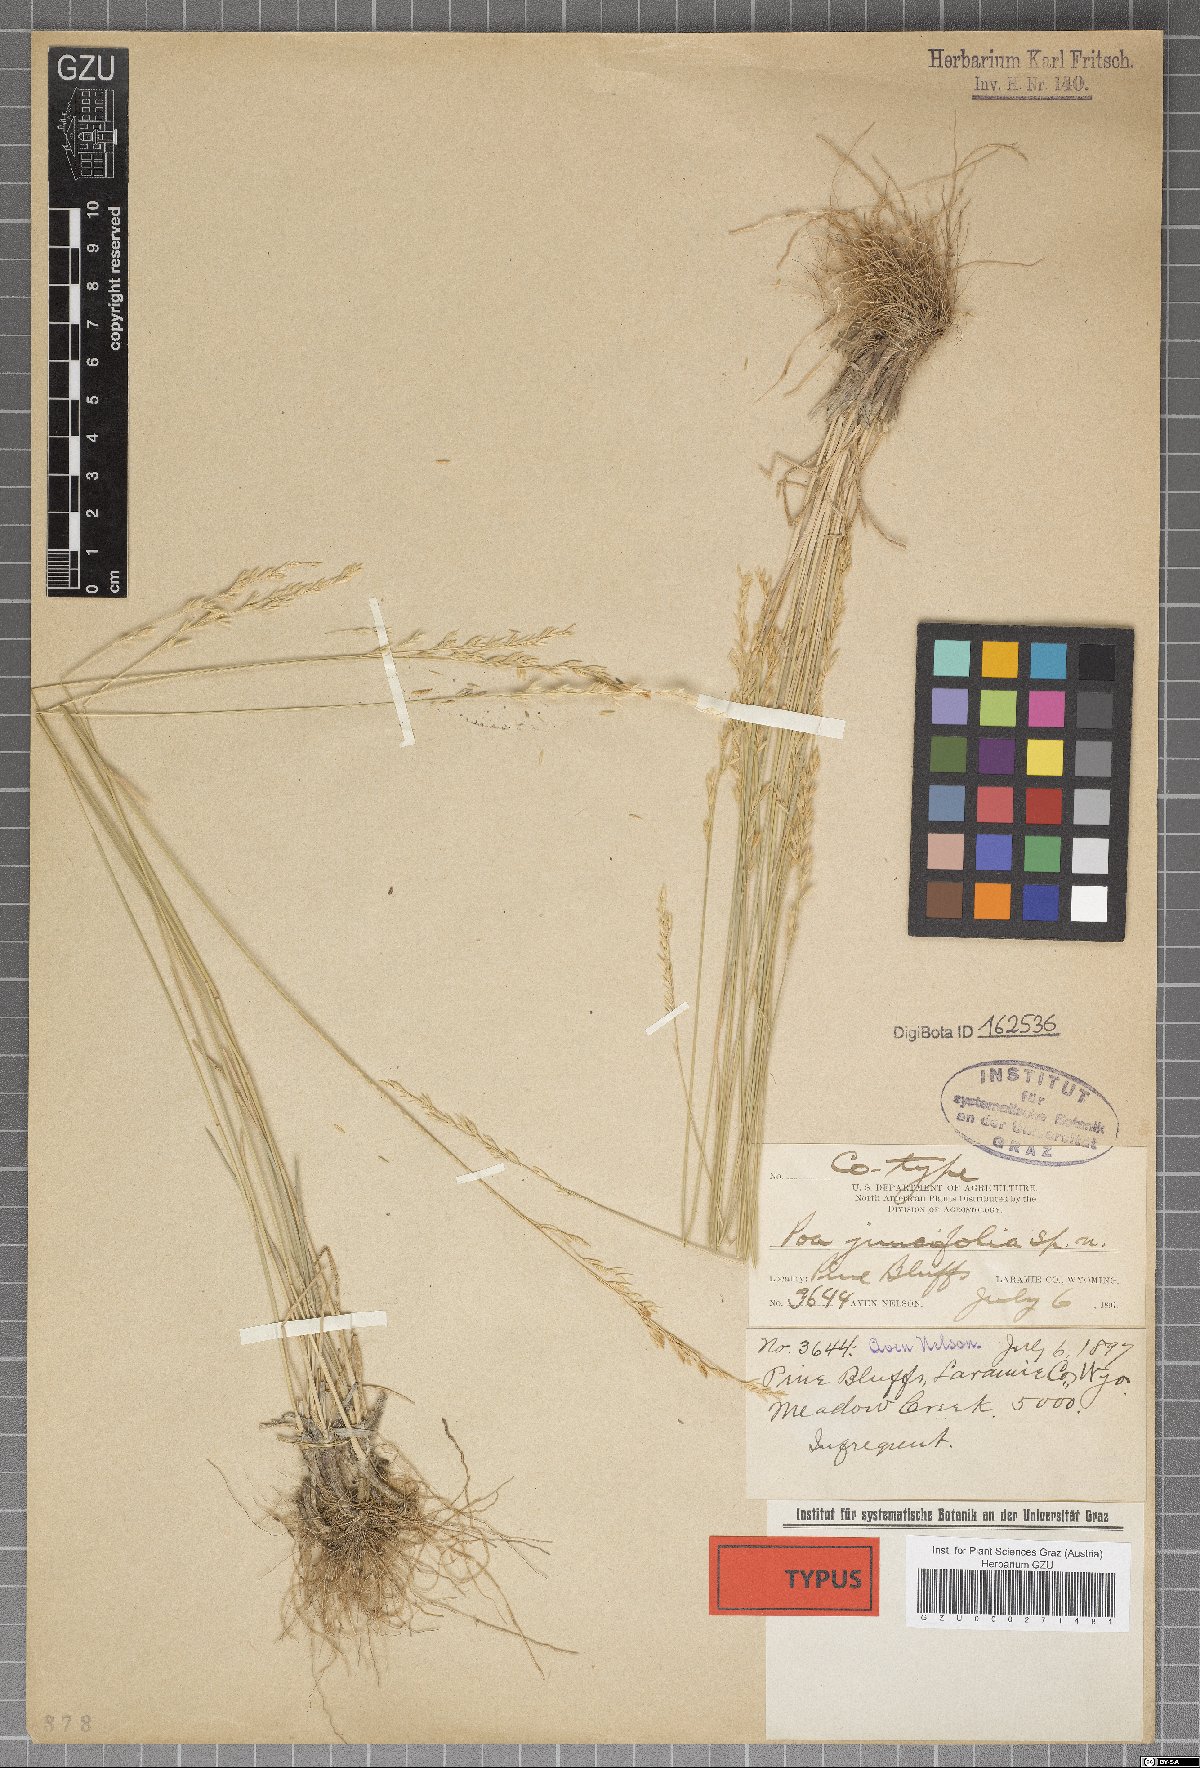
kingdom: Plantae
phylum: Tracheophyta
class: Liliopsida
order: Poales
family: Poaceae
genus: Poa
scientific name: Poa secunda
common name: Sandberg bluegrass
